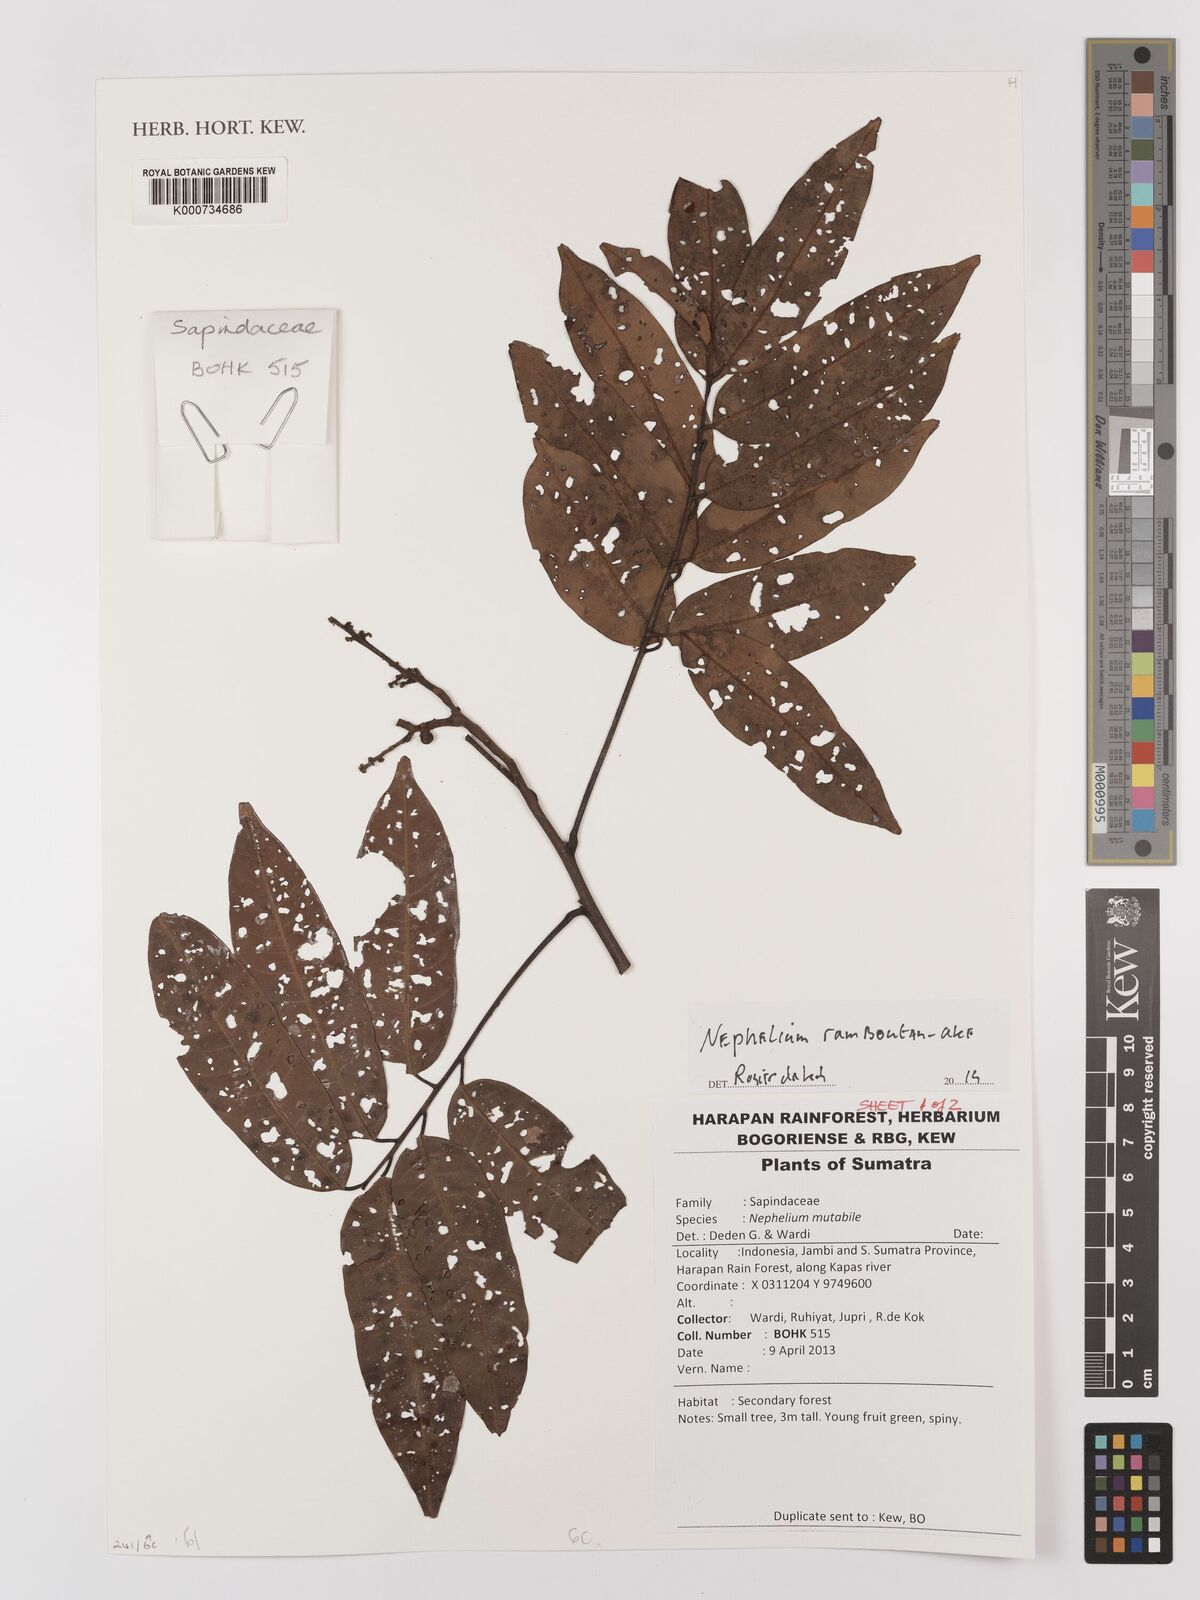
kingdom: Plantae
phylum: Tracheophyta
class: Magnoliopsida
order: Sapindales
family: Sapindaceae
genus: Nephelium
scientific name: Nephelium ramboutan-ake
